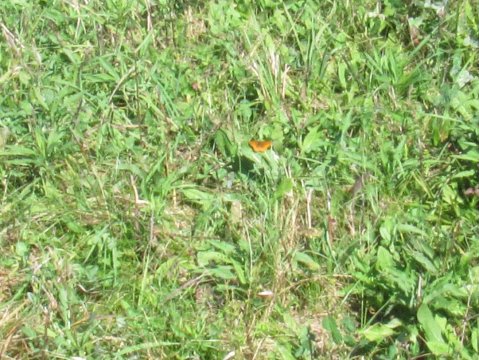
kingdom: Animalia
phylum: Arthropoda
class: Insecta
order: Lepidoptera
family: Nymphalidae
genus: Clossiana
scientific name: Clossiana toddi
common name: Meadow Fritillary
